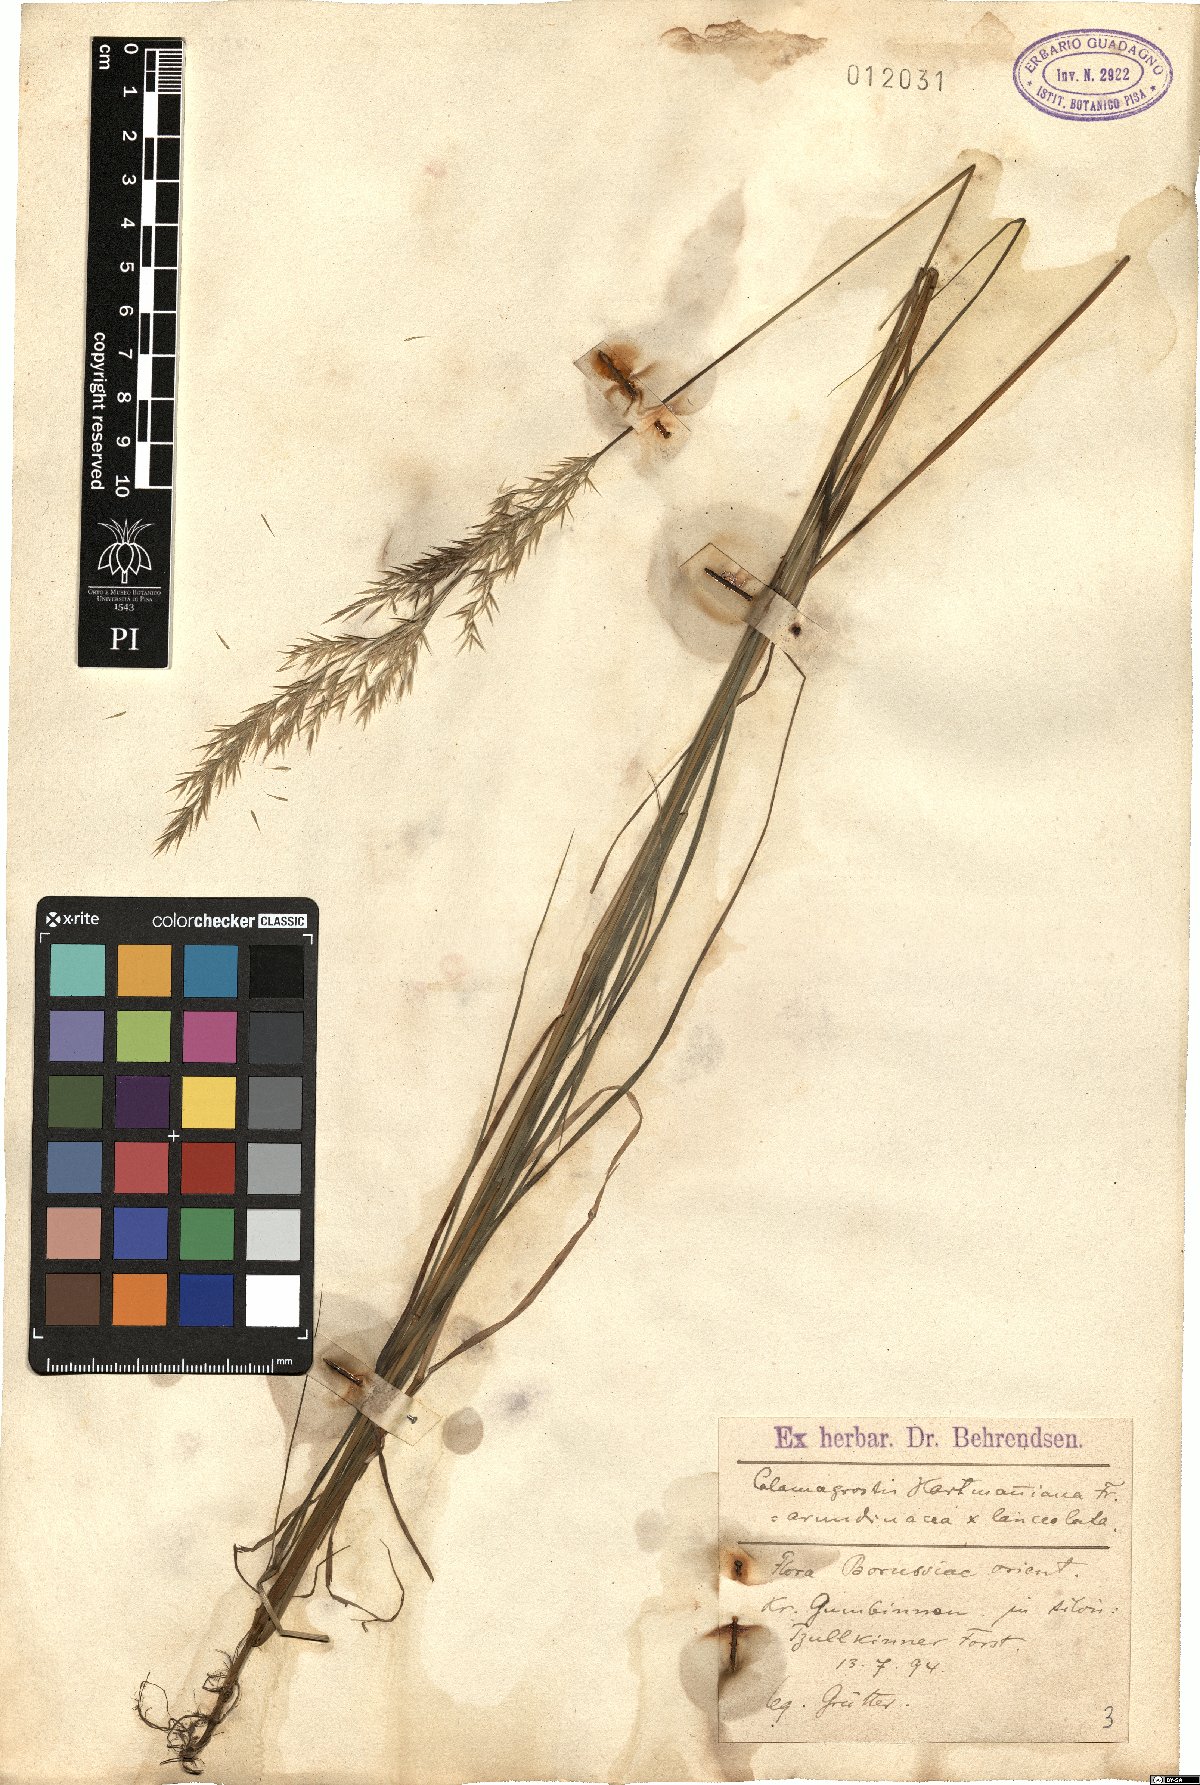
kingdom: Plantae
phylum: Tracheophyta
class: Liliopsida
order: Poales
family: Poaceae
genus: Calamagrostis
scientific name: Calamagrostis hartmaniana
